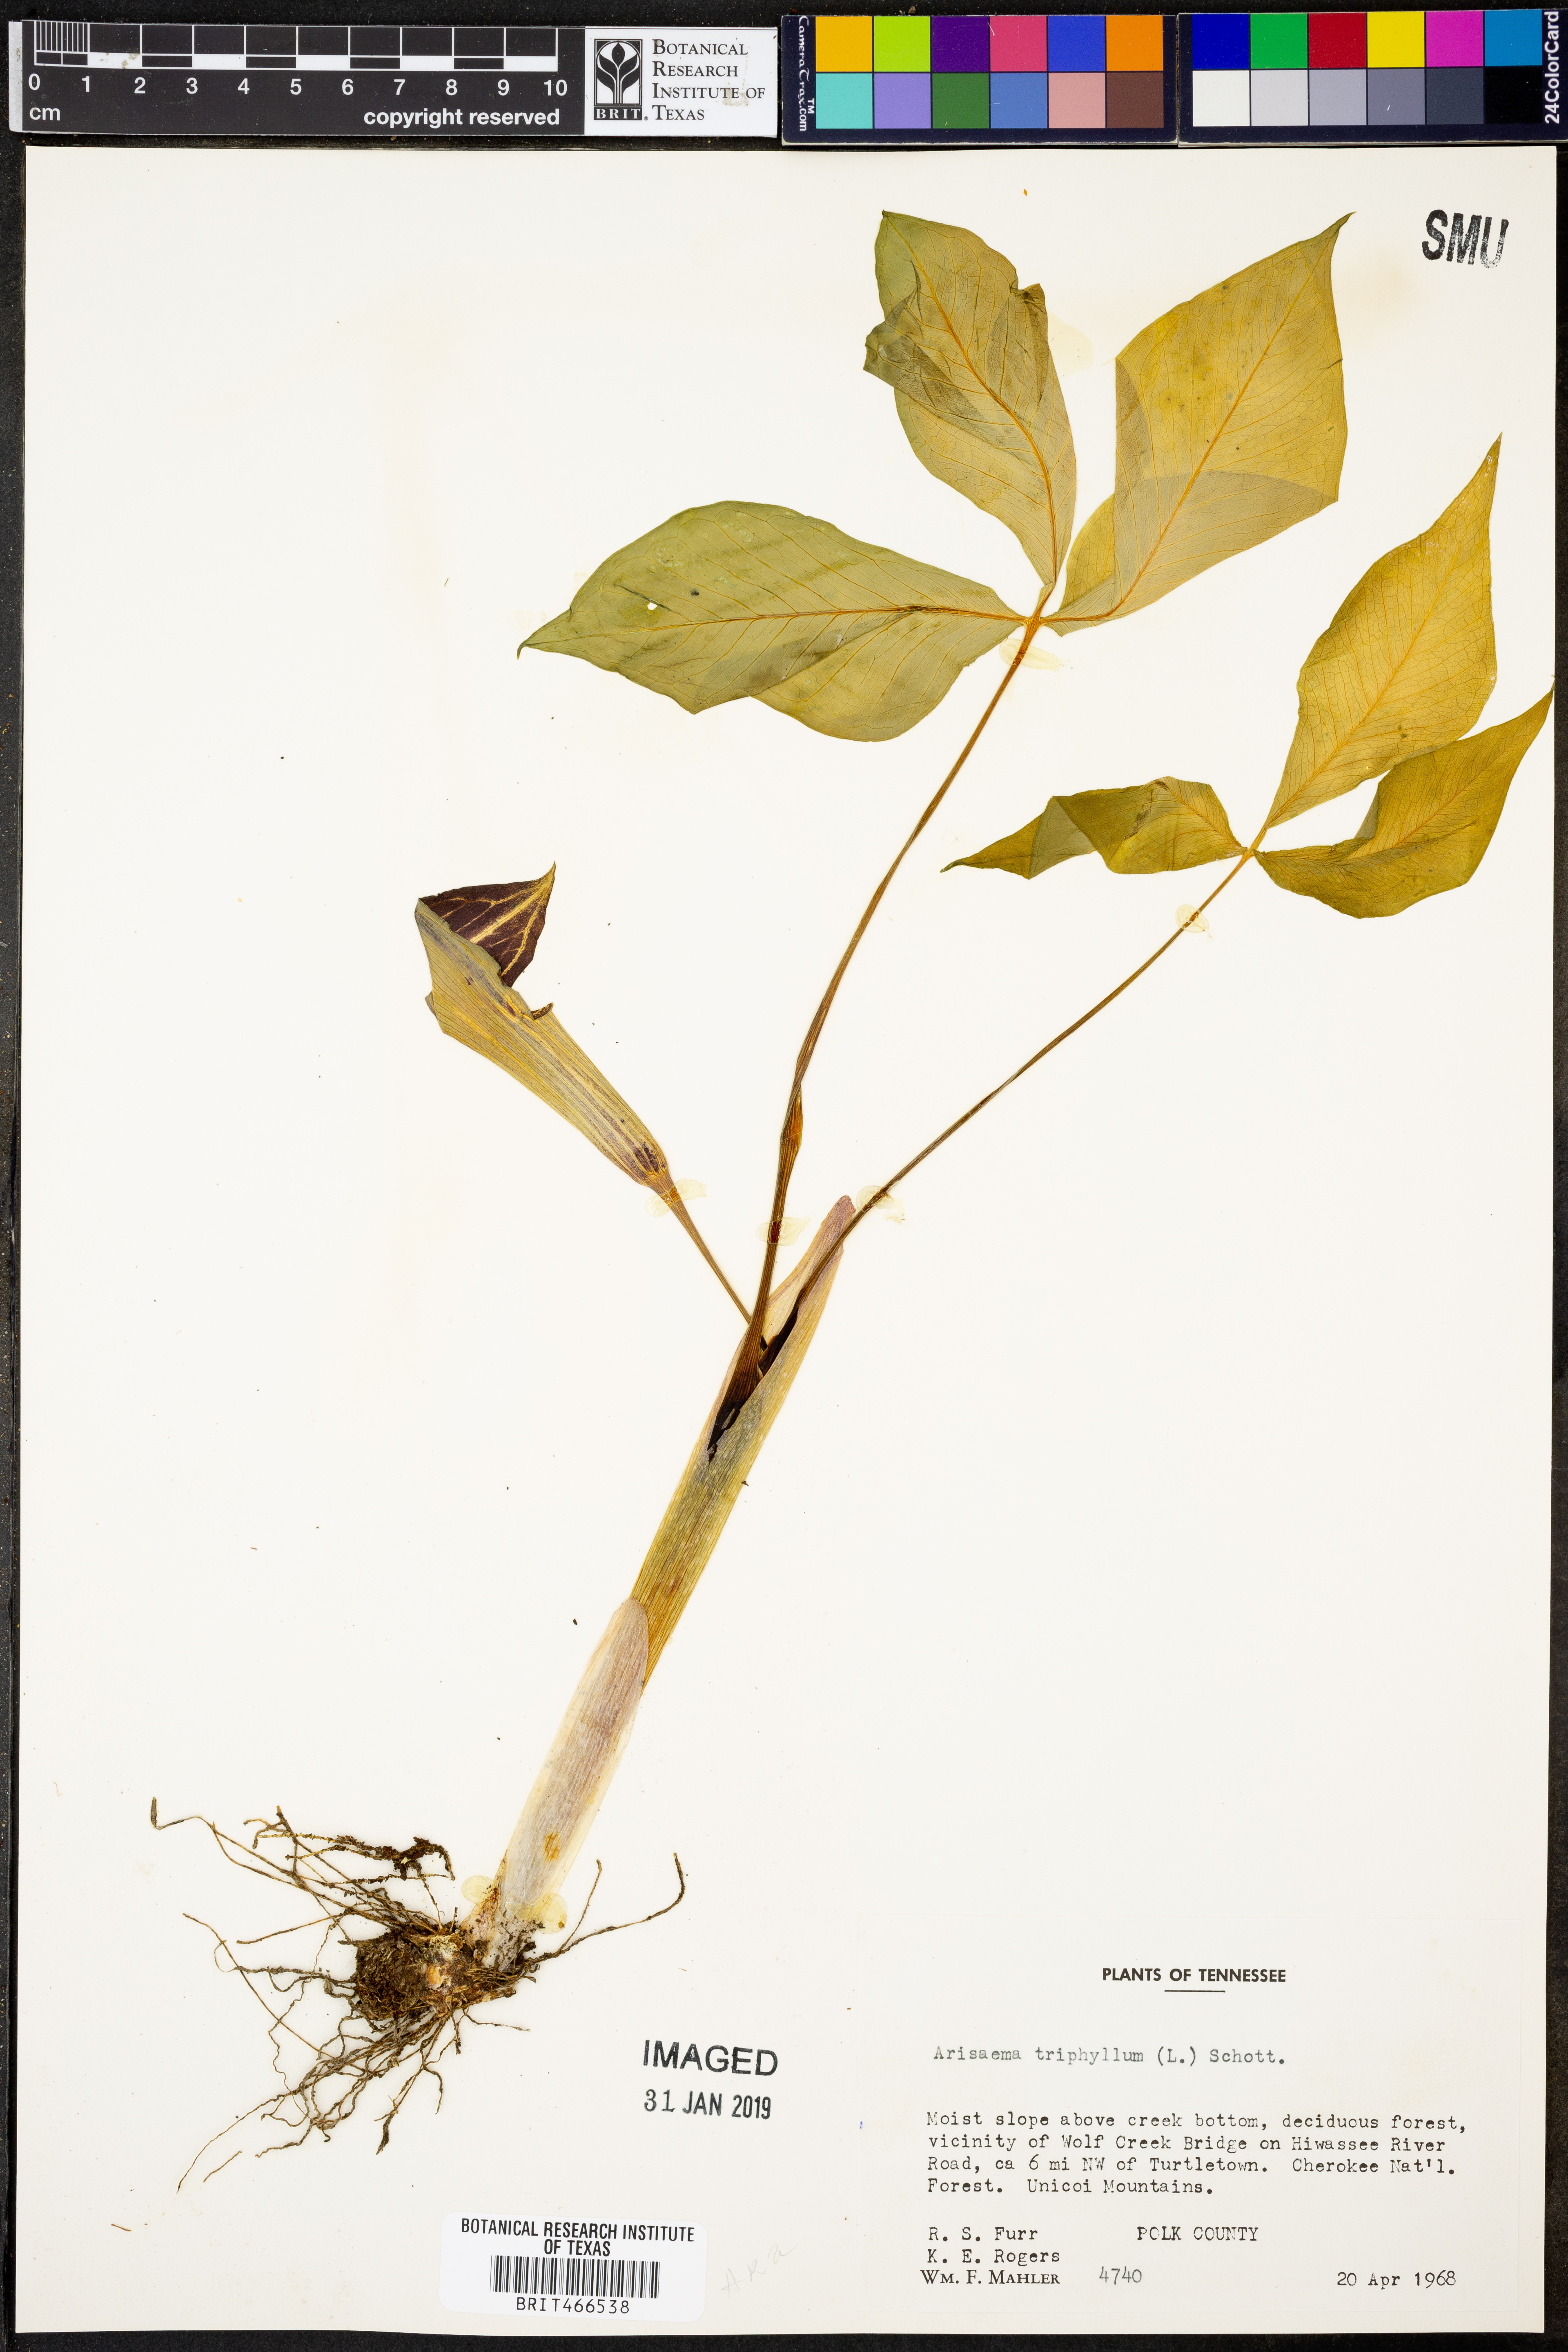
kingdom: Plantae
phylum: Tracheophyta
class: Liliopsida
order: Alismatales
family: Araceae
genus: Arisaema
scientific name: Arisaema triphyllum
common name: Jack-in-the-pulpit
